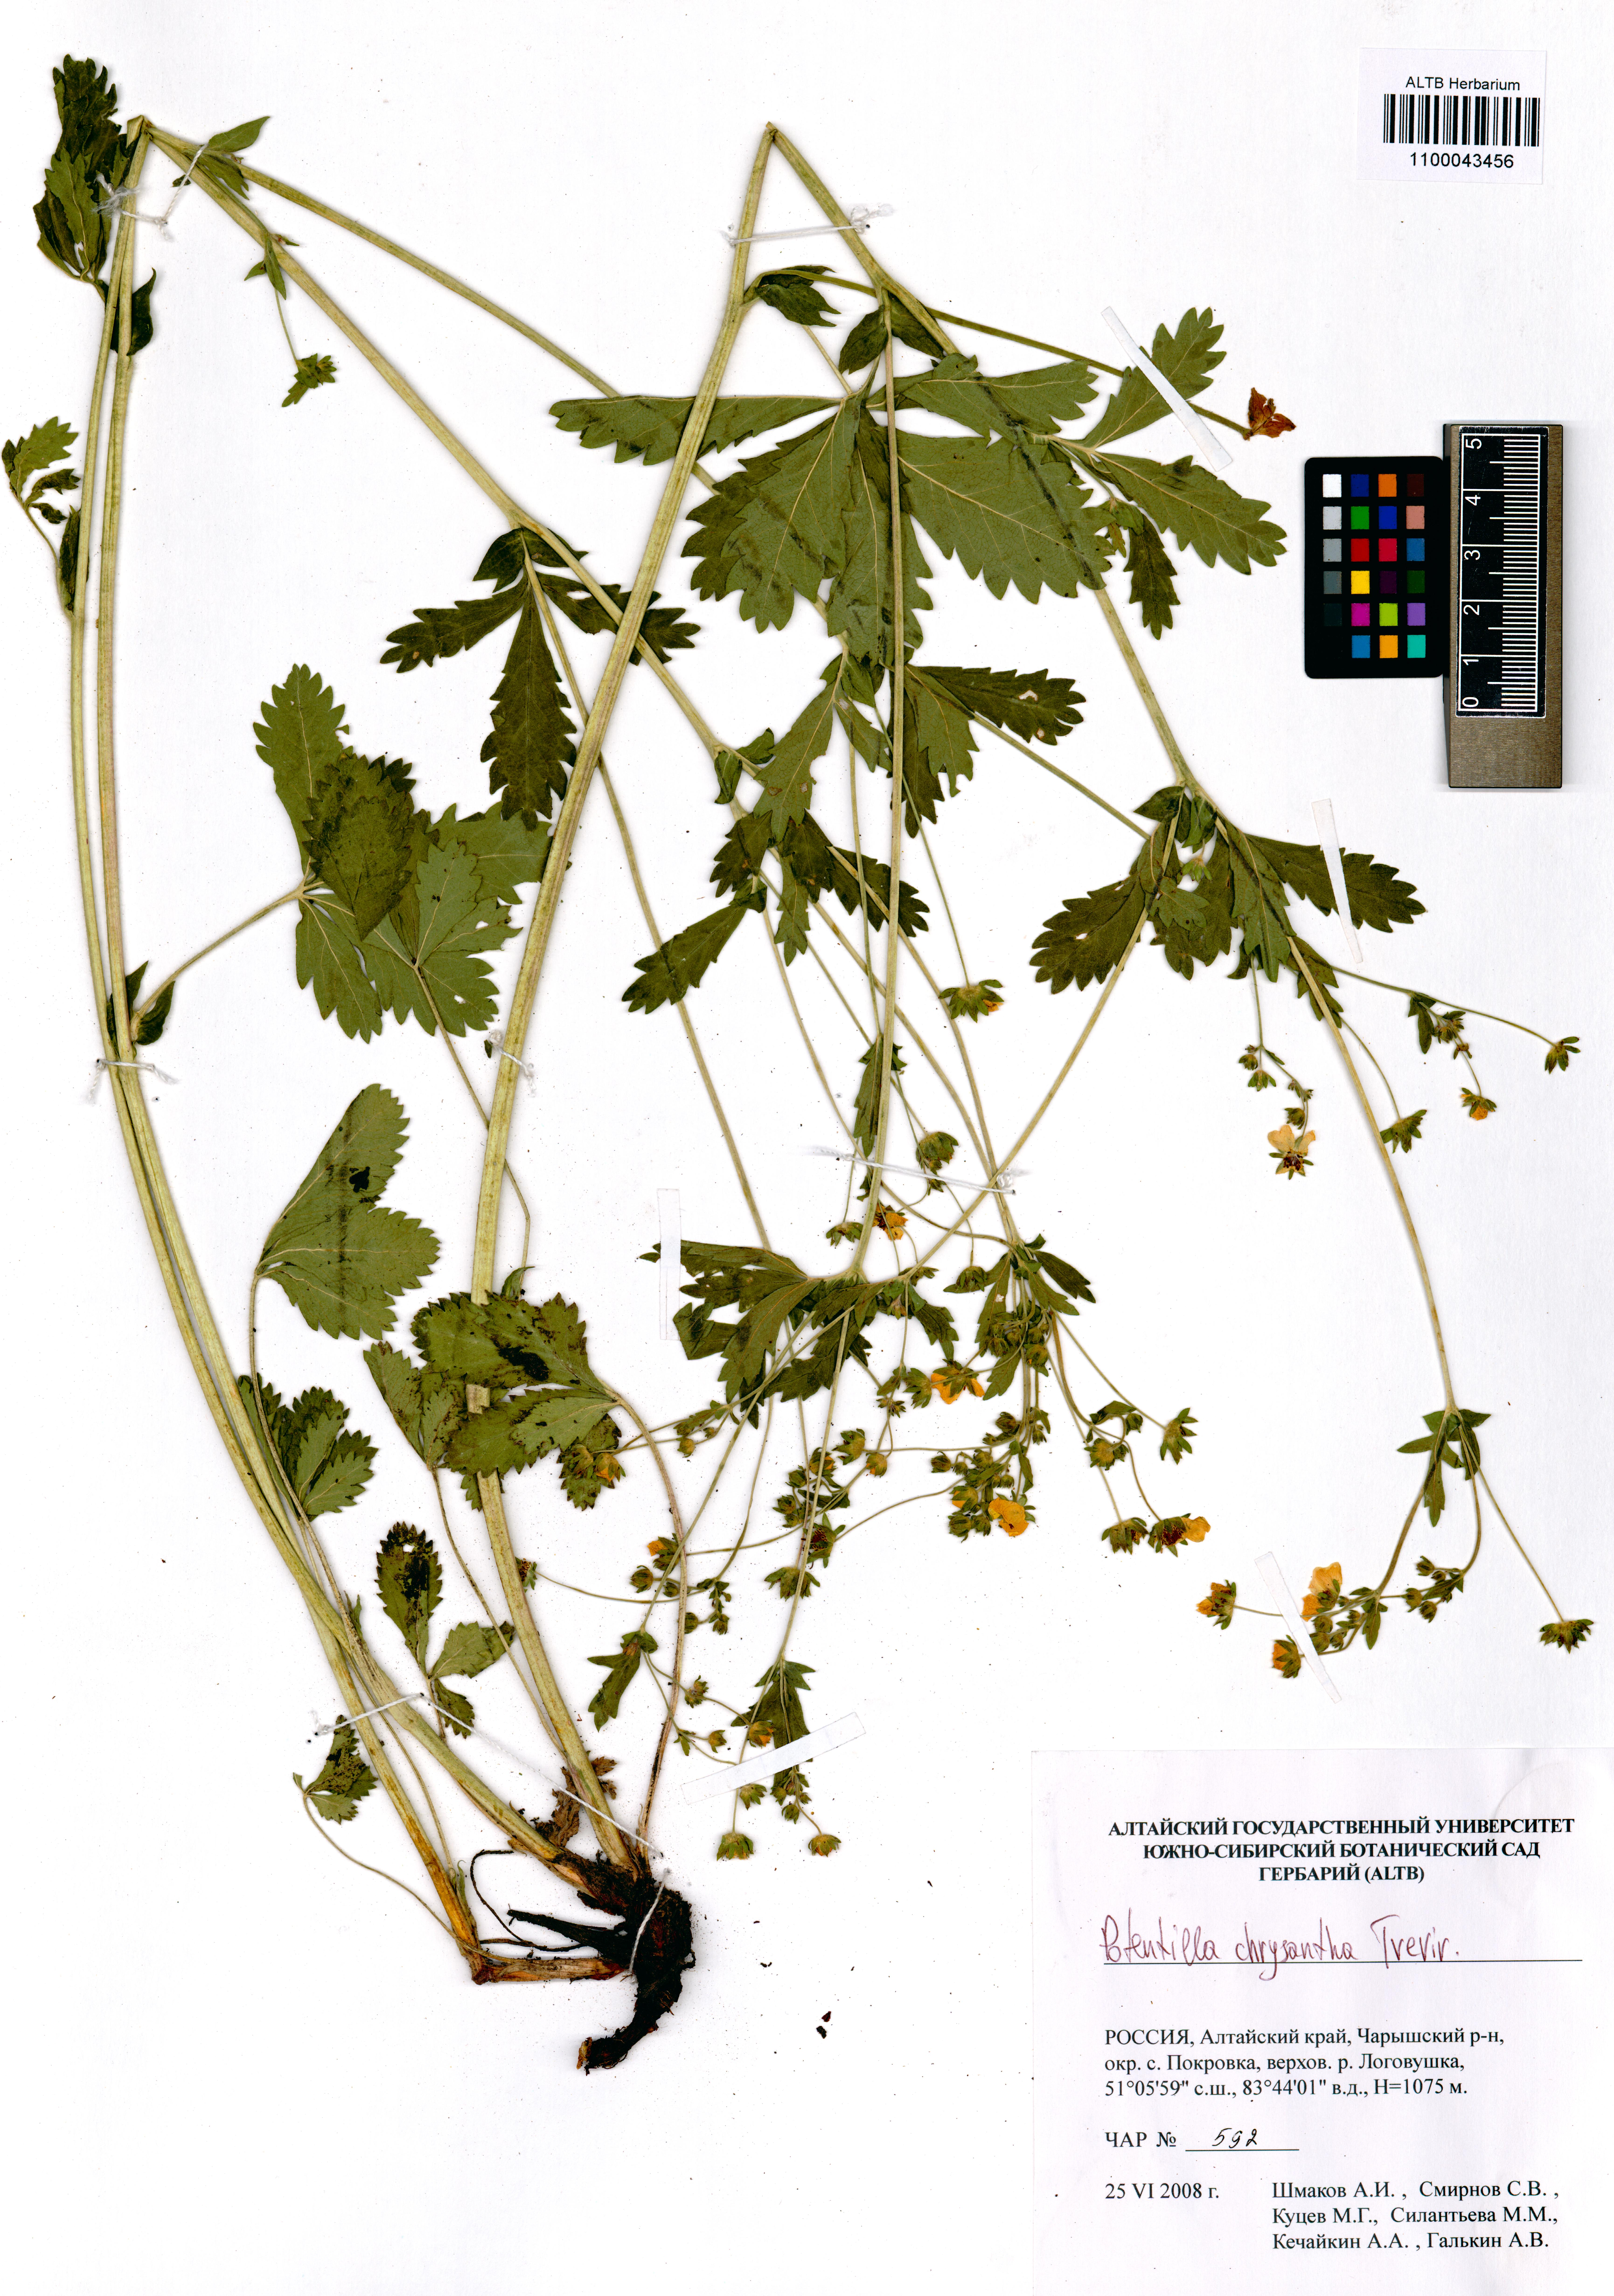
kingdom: Plantae
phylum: Tracheophyta
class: Magnoliopsida
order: Rosales
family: Rosaceae
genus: Potentilla
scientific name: Potentilla chrysantha
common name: Thuringian cinquefoil
